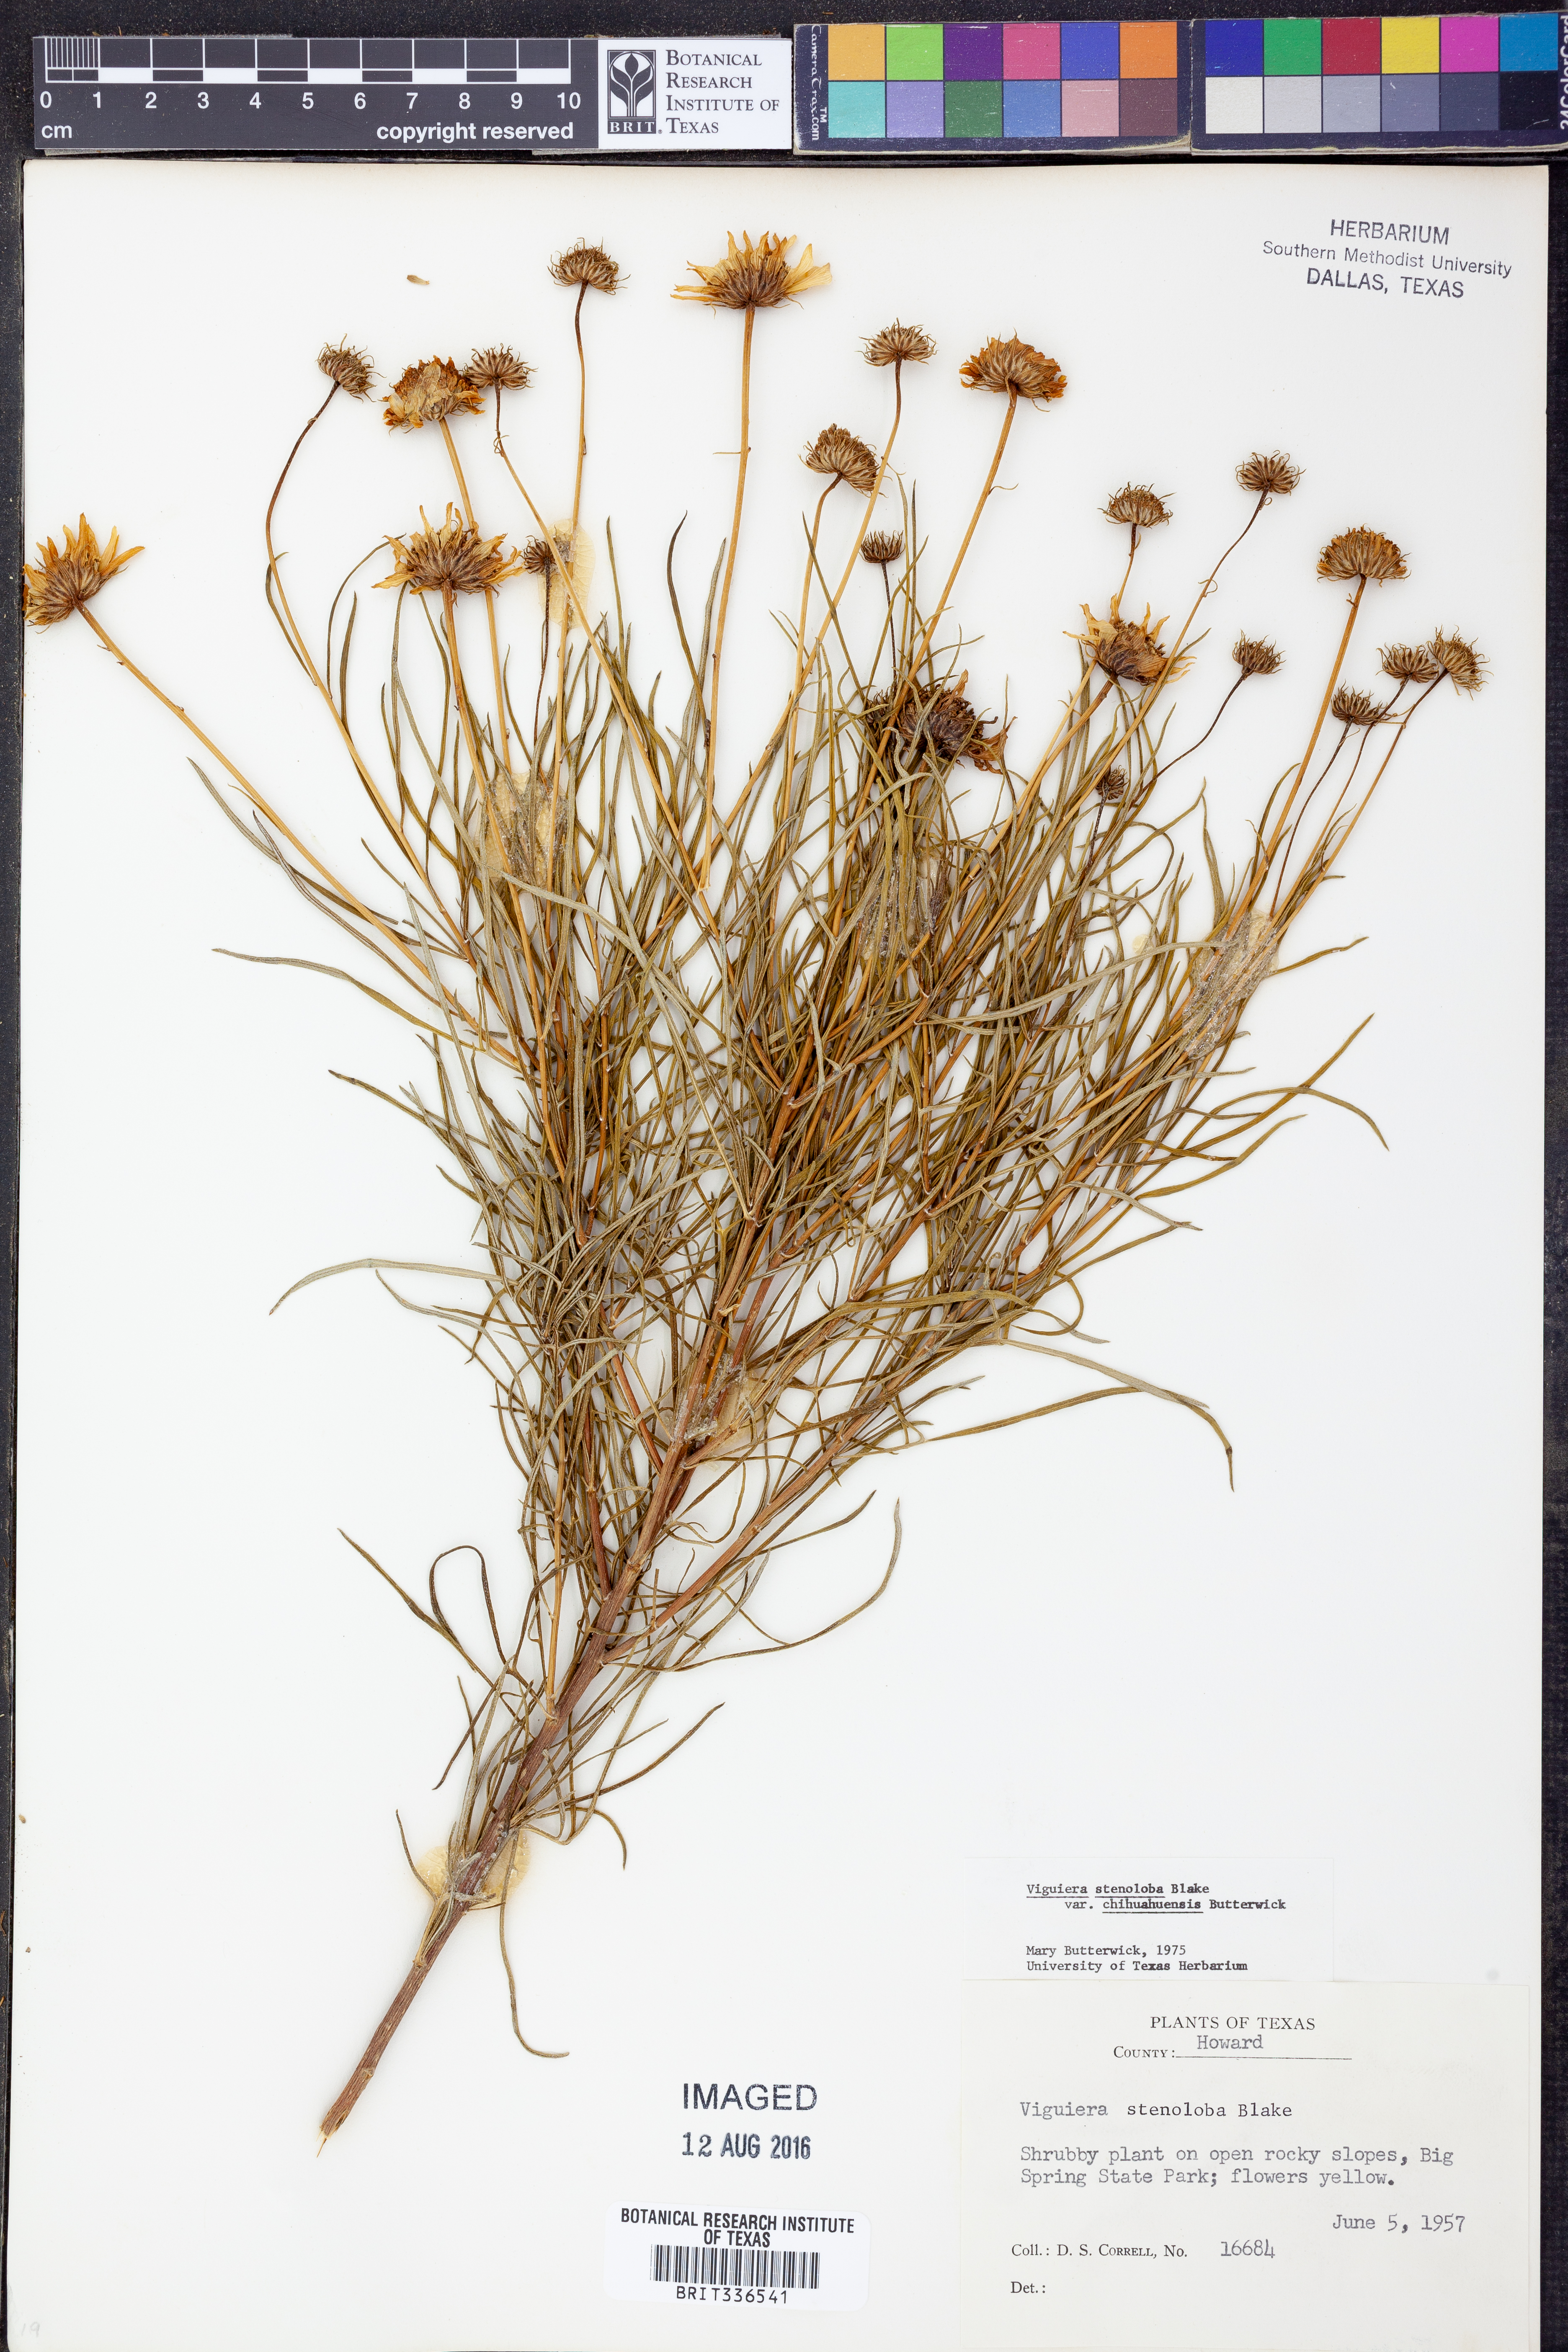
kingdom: Plantae
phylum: Tracheophyta
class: Magnoliopsida
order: Asterales
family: Asteraceae
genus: Sidneya
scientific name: Sidneya tenuifolia
